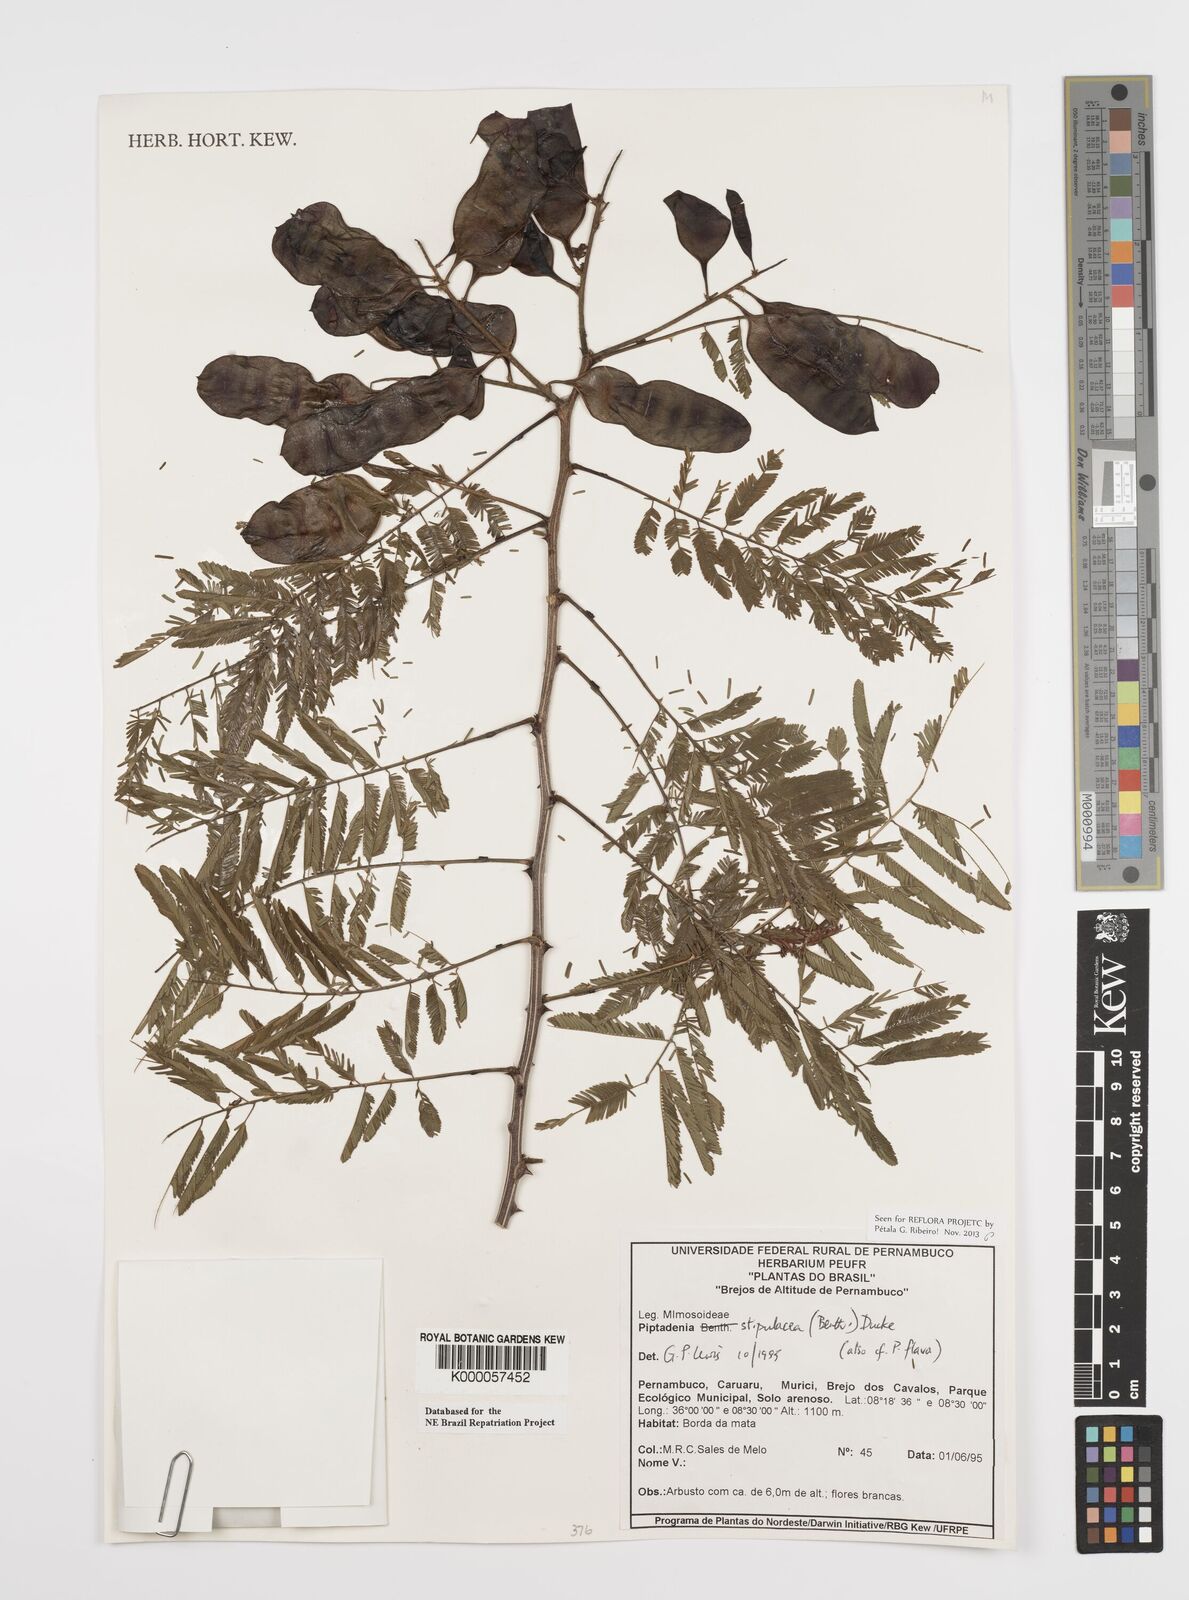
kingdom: Plantae
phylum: Tracheophyta
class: Magnoliopsida
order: Fabales
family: Fabaceae
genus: Piptadenia
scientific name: Piptadenia retusa
